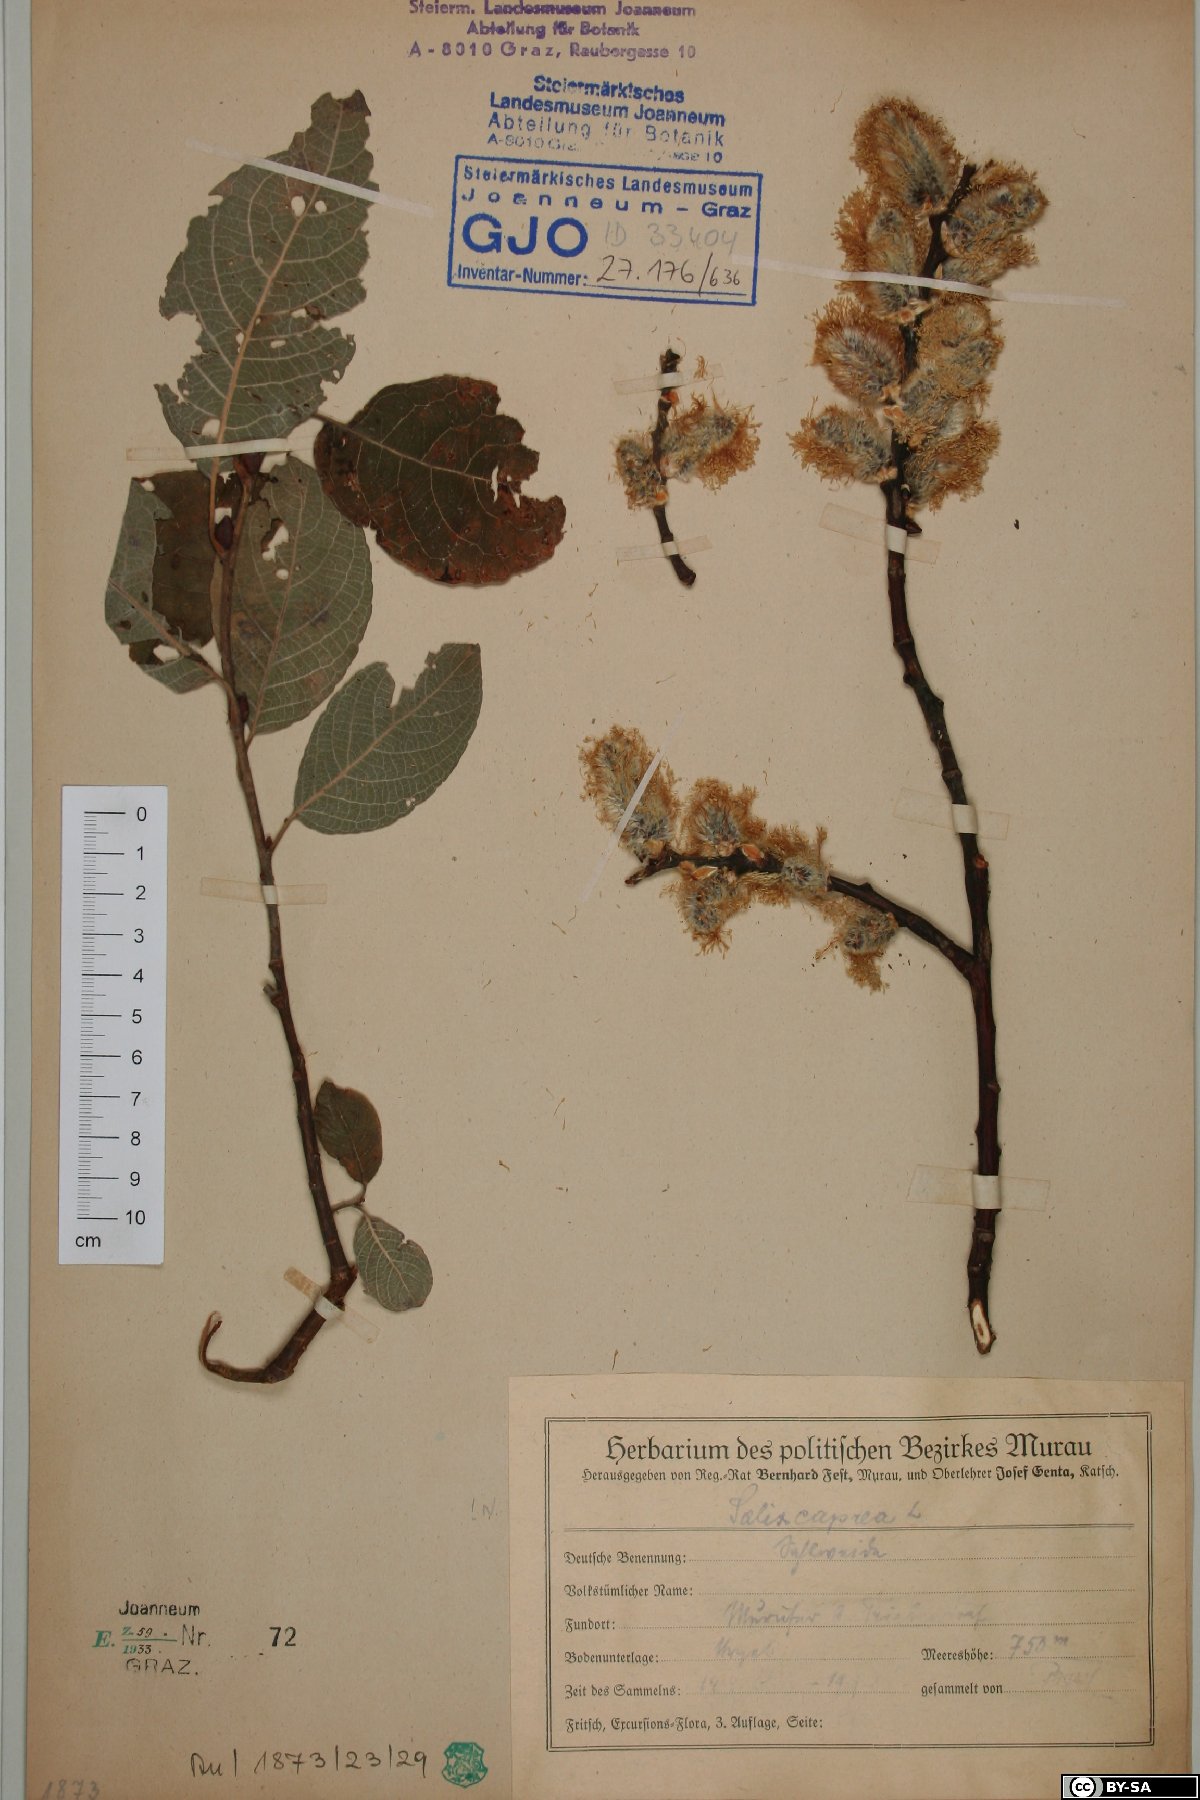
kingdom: Plantae
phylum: Tracheophyta
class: Magnoliopsida
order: Malpighiales
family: Salicaceae
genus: Salix
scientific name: Salix caprea
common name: Goat willow
